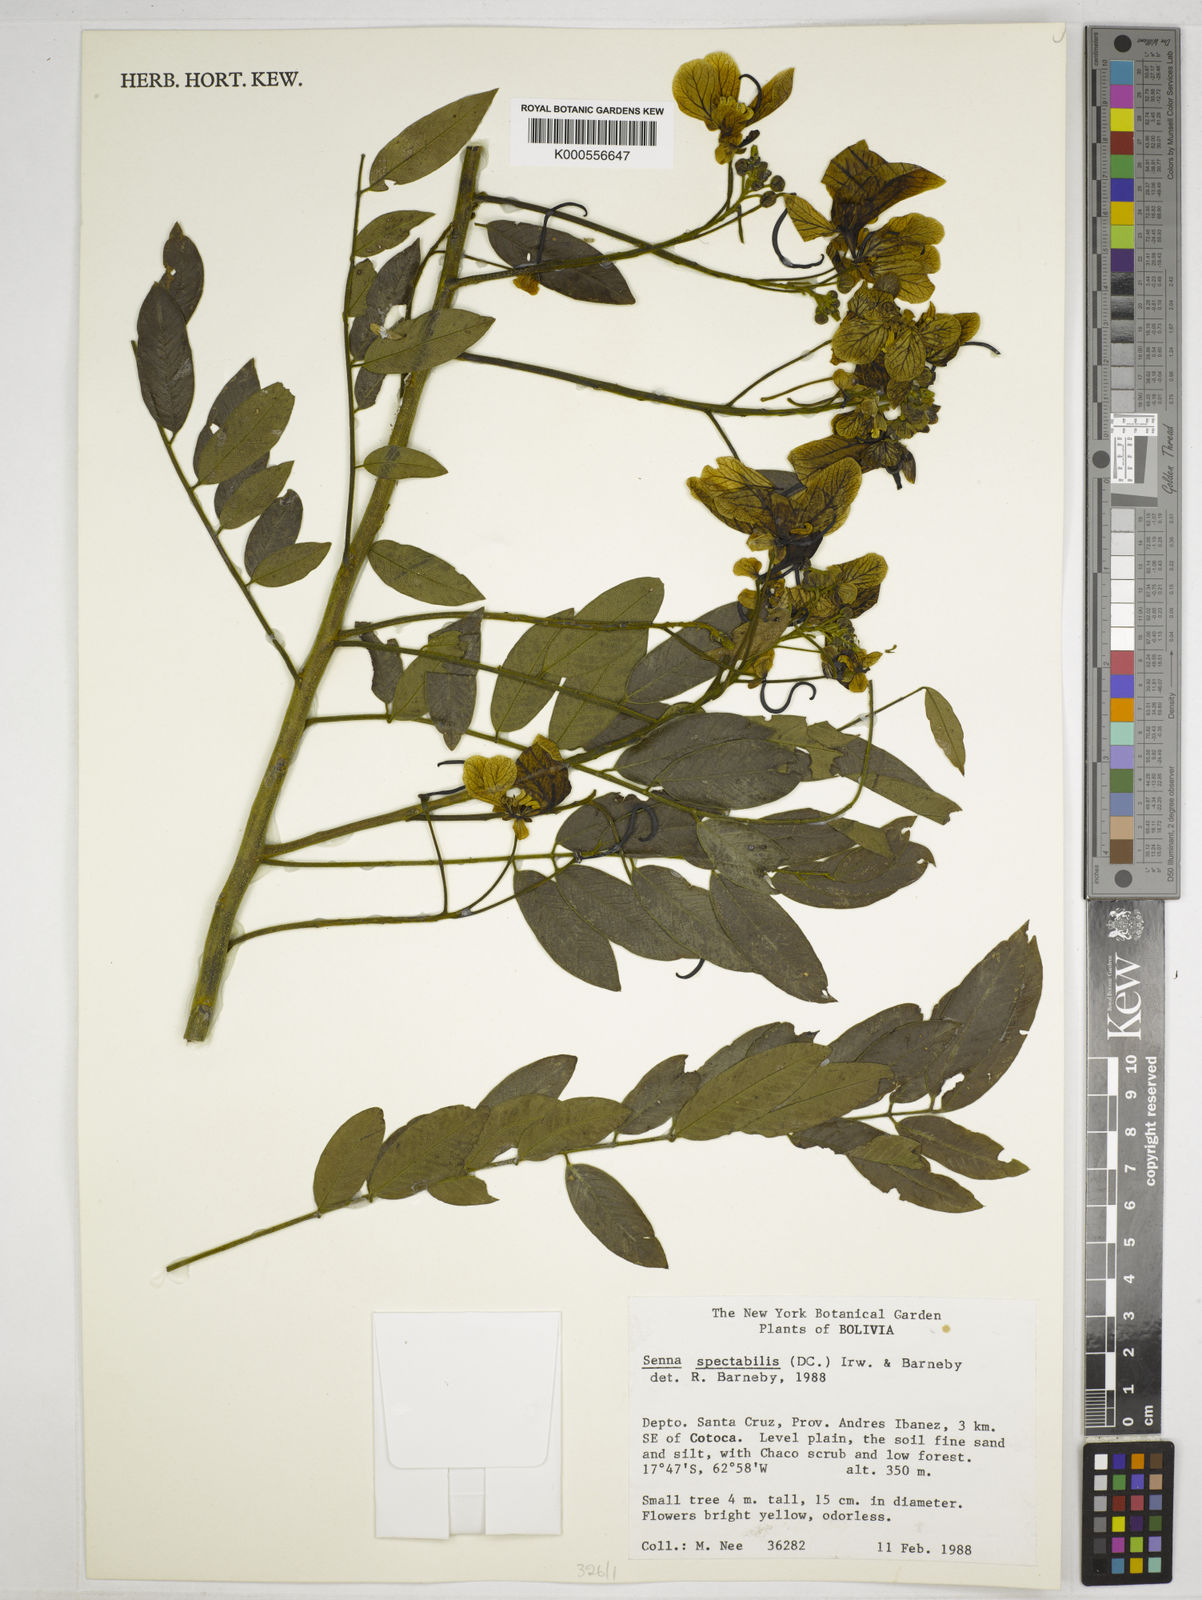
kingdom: Plantae
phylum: Tracheophyta
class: Magnoliopsida
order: Fabales
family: Fabaceae
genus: Senna
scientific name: Senna spectabilis
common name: Casia amarilla
